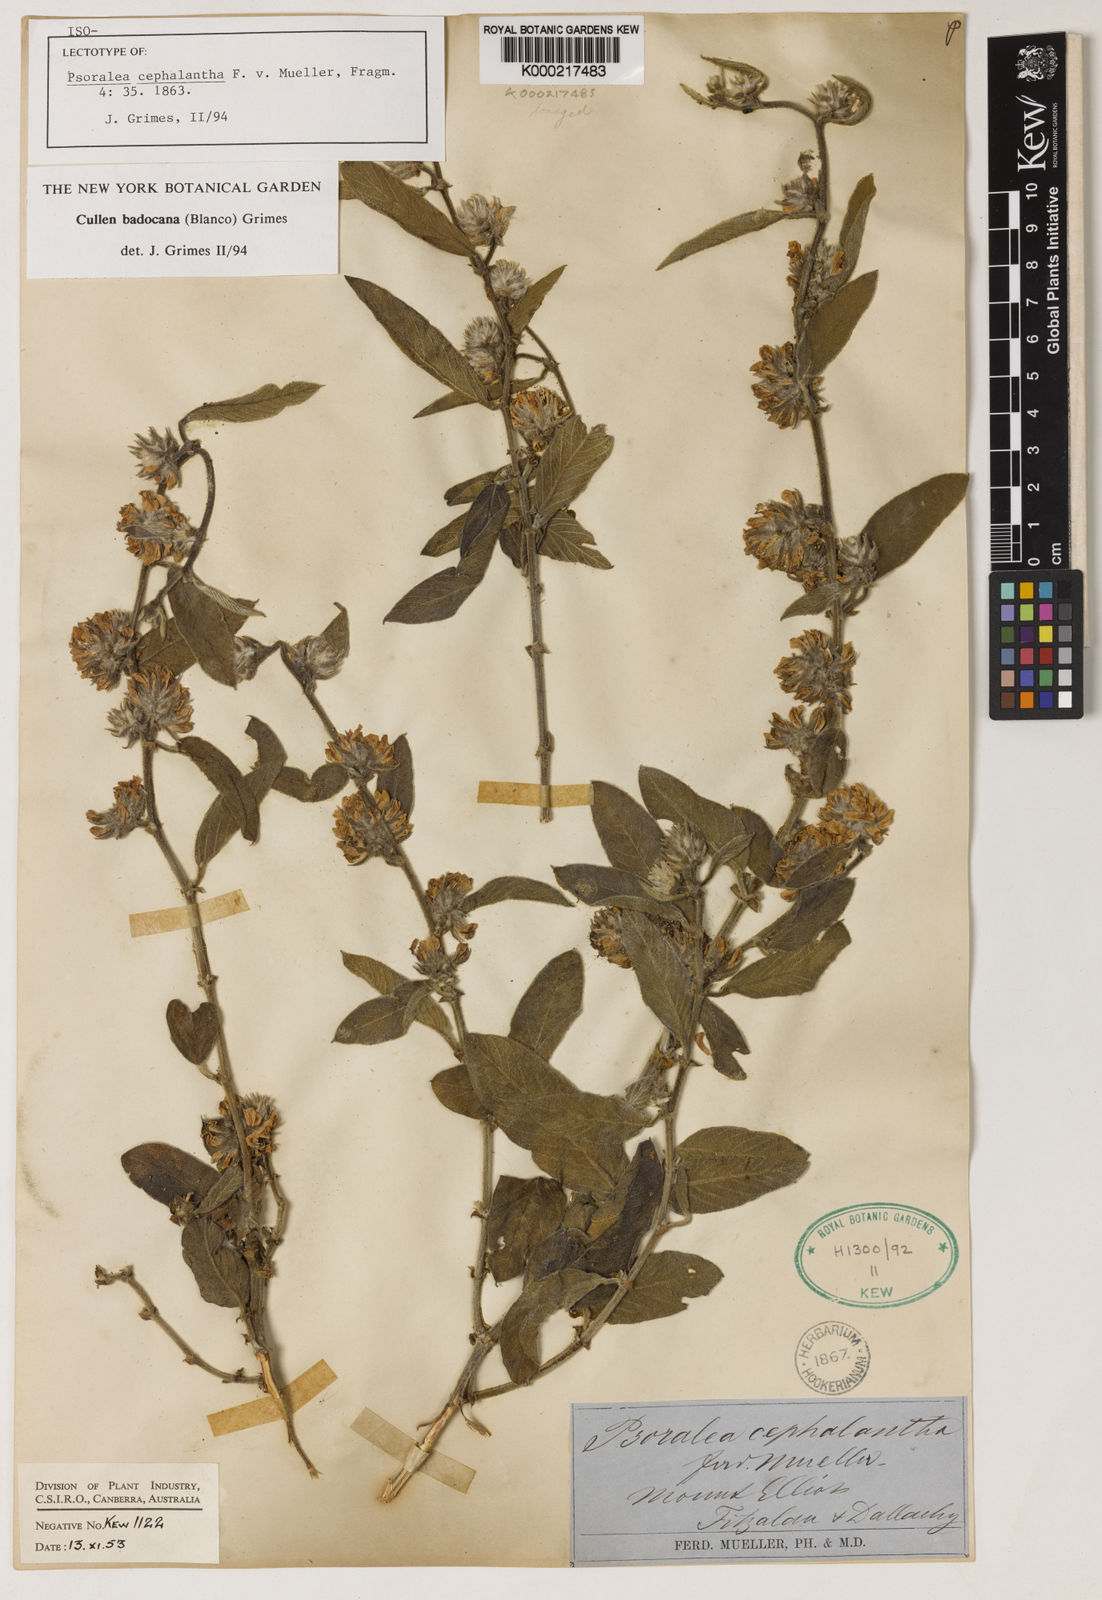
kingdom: Plantae
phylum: Tracheophyta
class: Magnoliopsida
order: Fabales
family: Fabaceae
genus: Cullen
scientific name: Cullen
